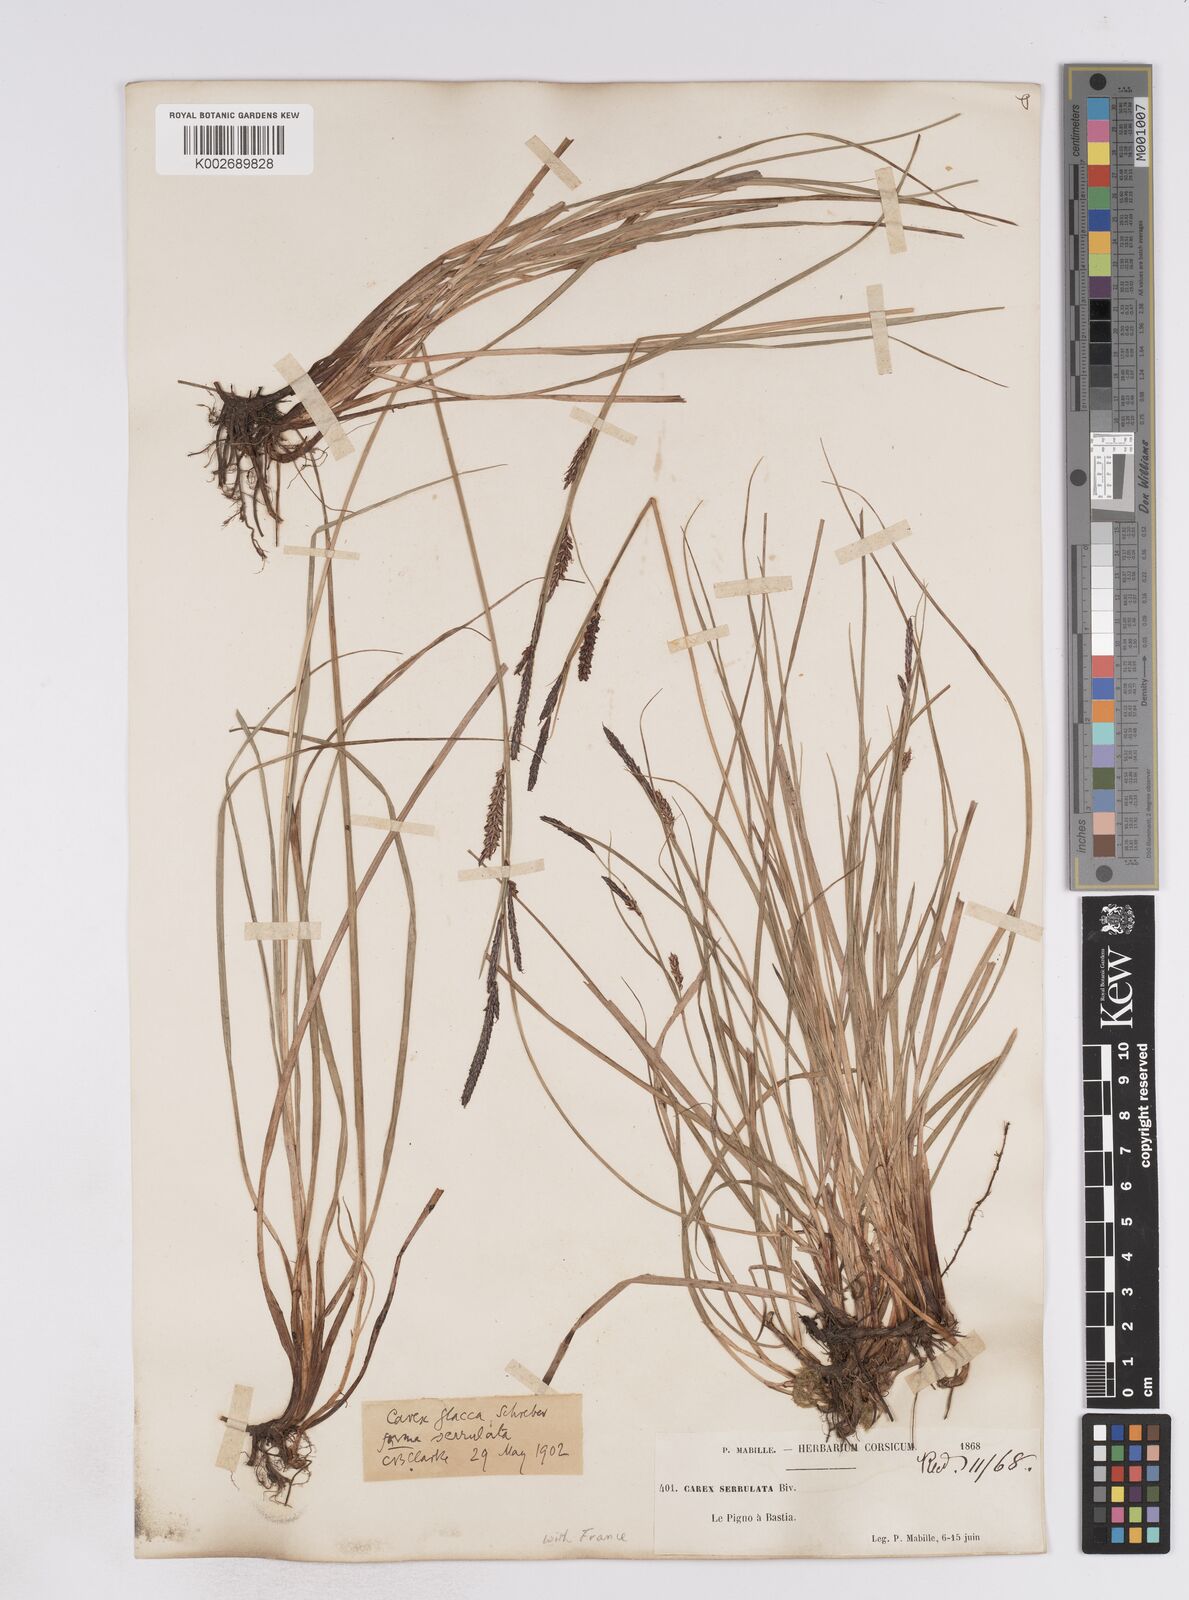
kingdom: Plantae
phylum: Tracheophyta
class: Liliopsida
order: Poales
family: Cyperaceae
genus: Carex
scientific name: Carex flacca
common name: Glaucous sedge
